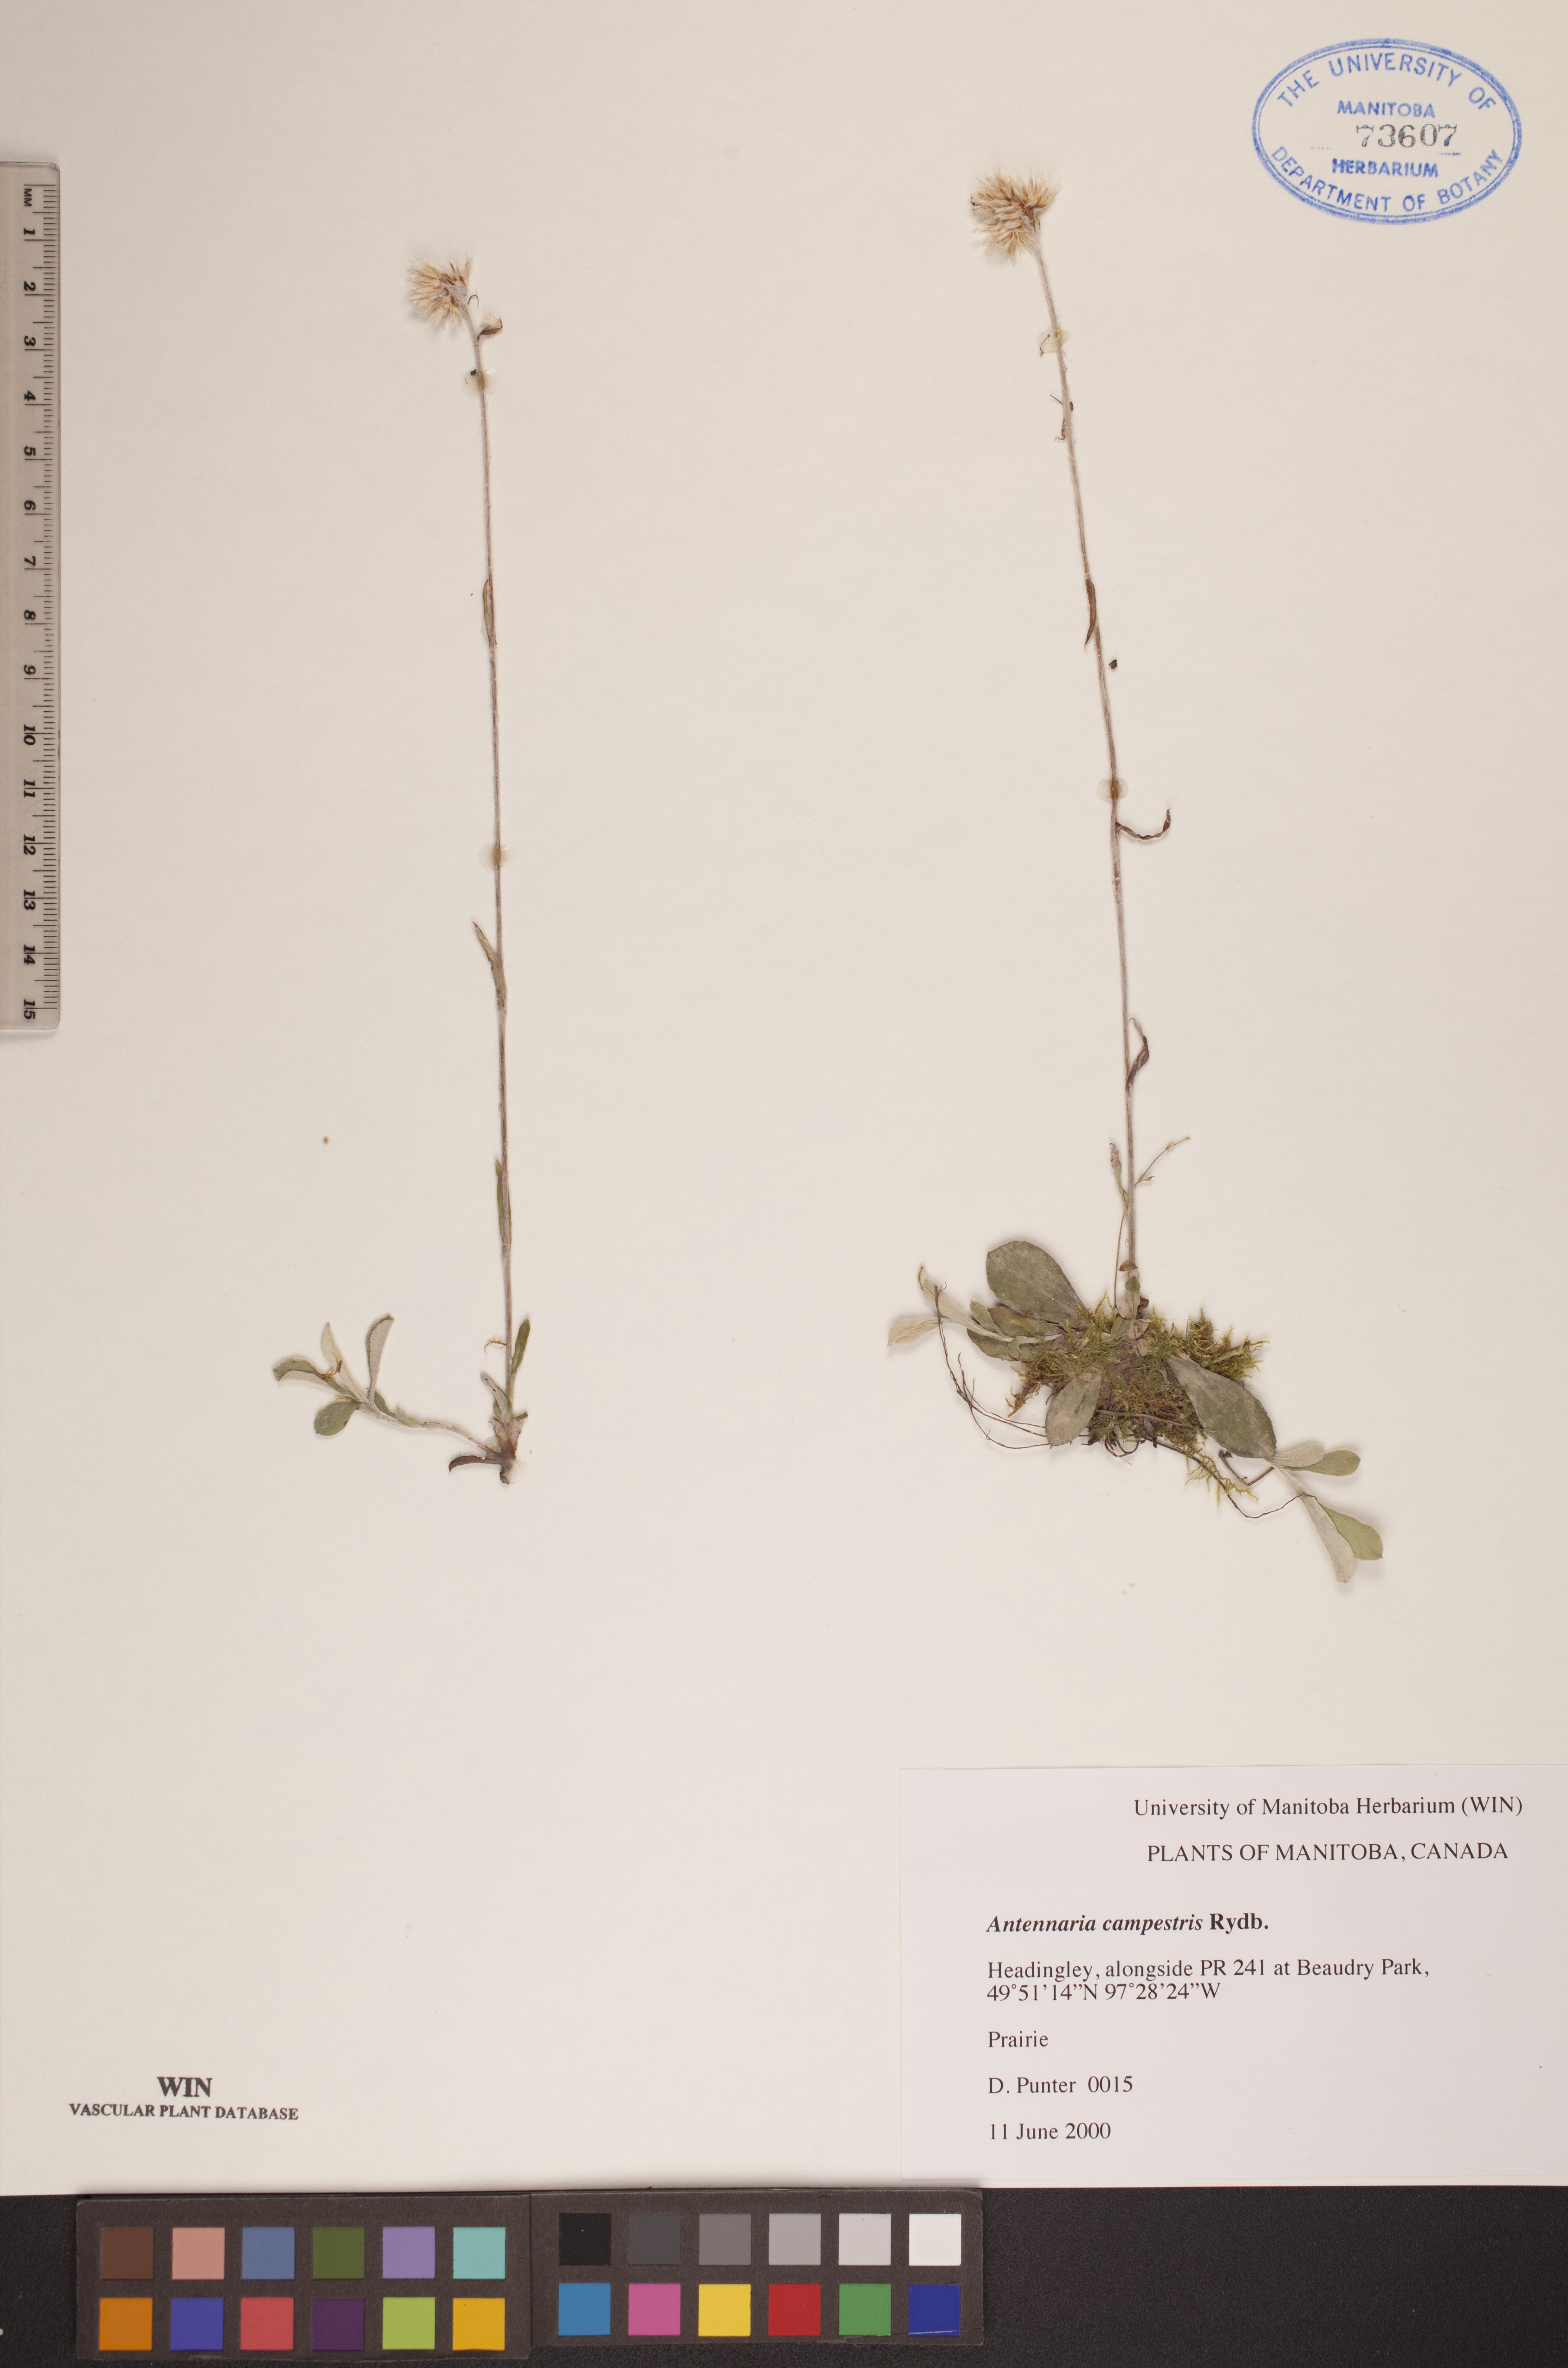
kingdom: Plantae
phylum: Tracheophyta
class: Magnoliopsida
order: Asterales
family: Asteraceae
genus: Antennaria
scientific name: Antennaria neglecta
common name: Field pussytoes
